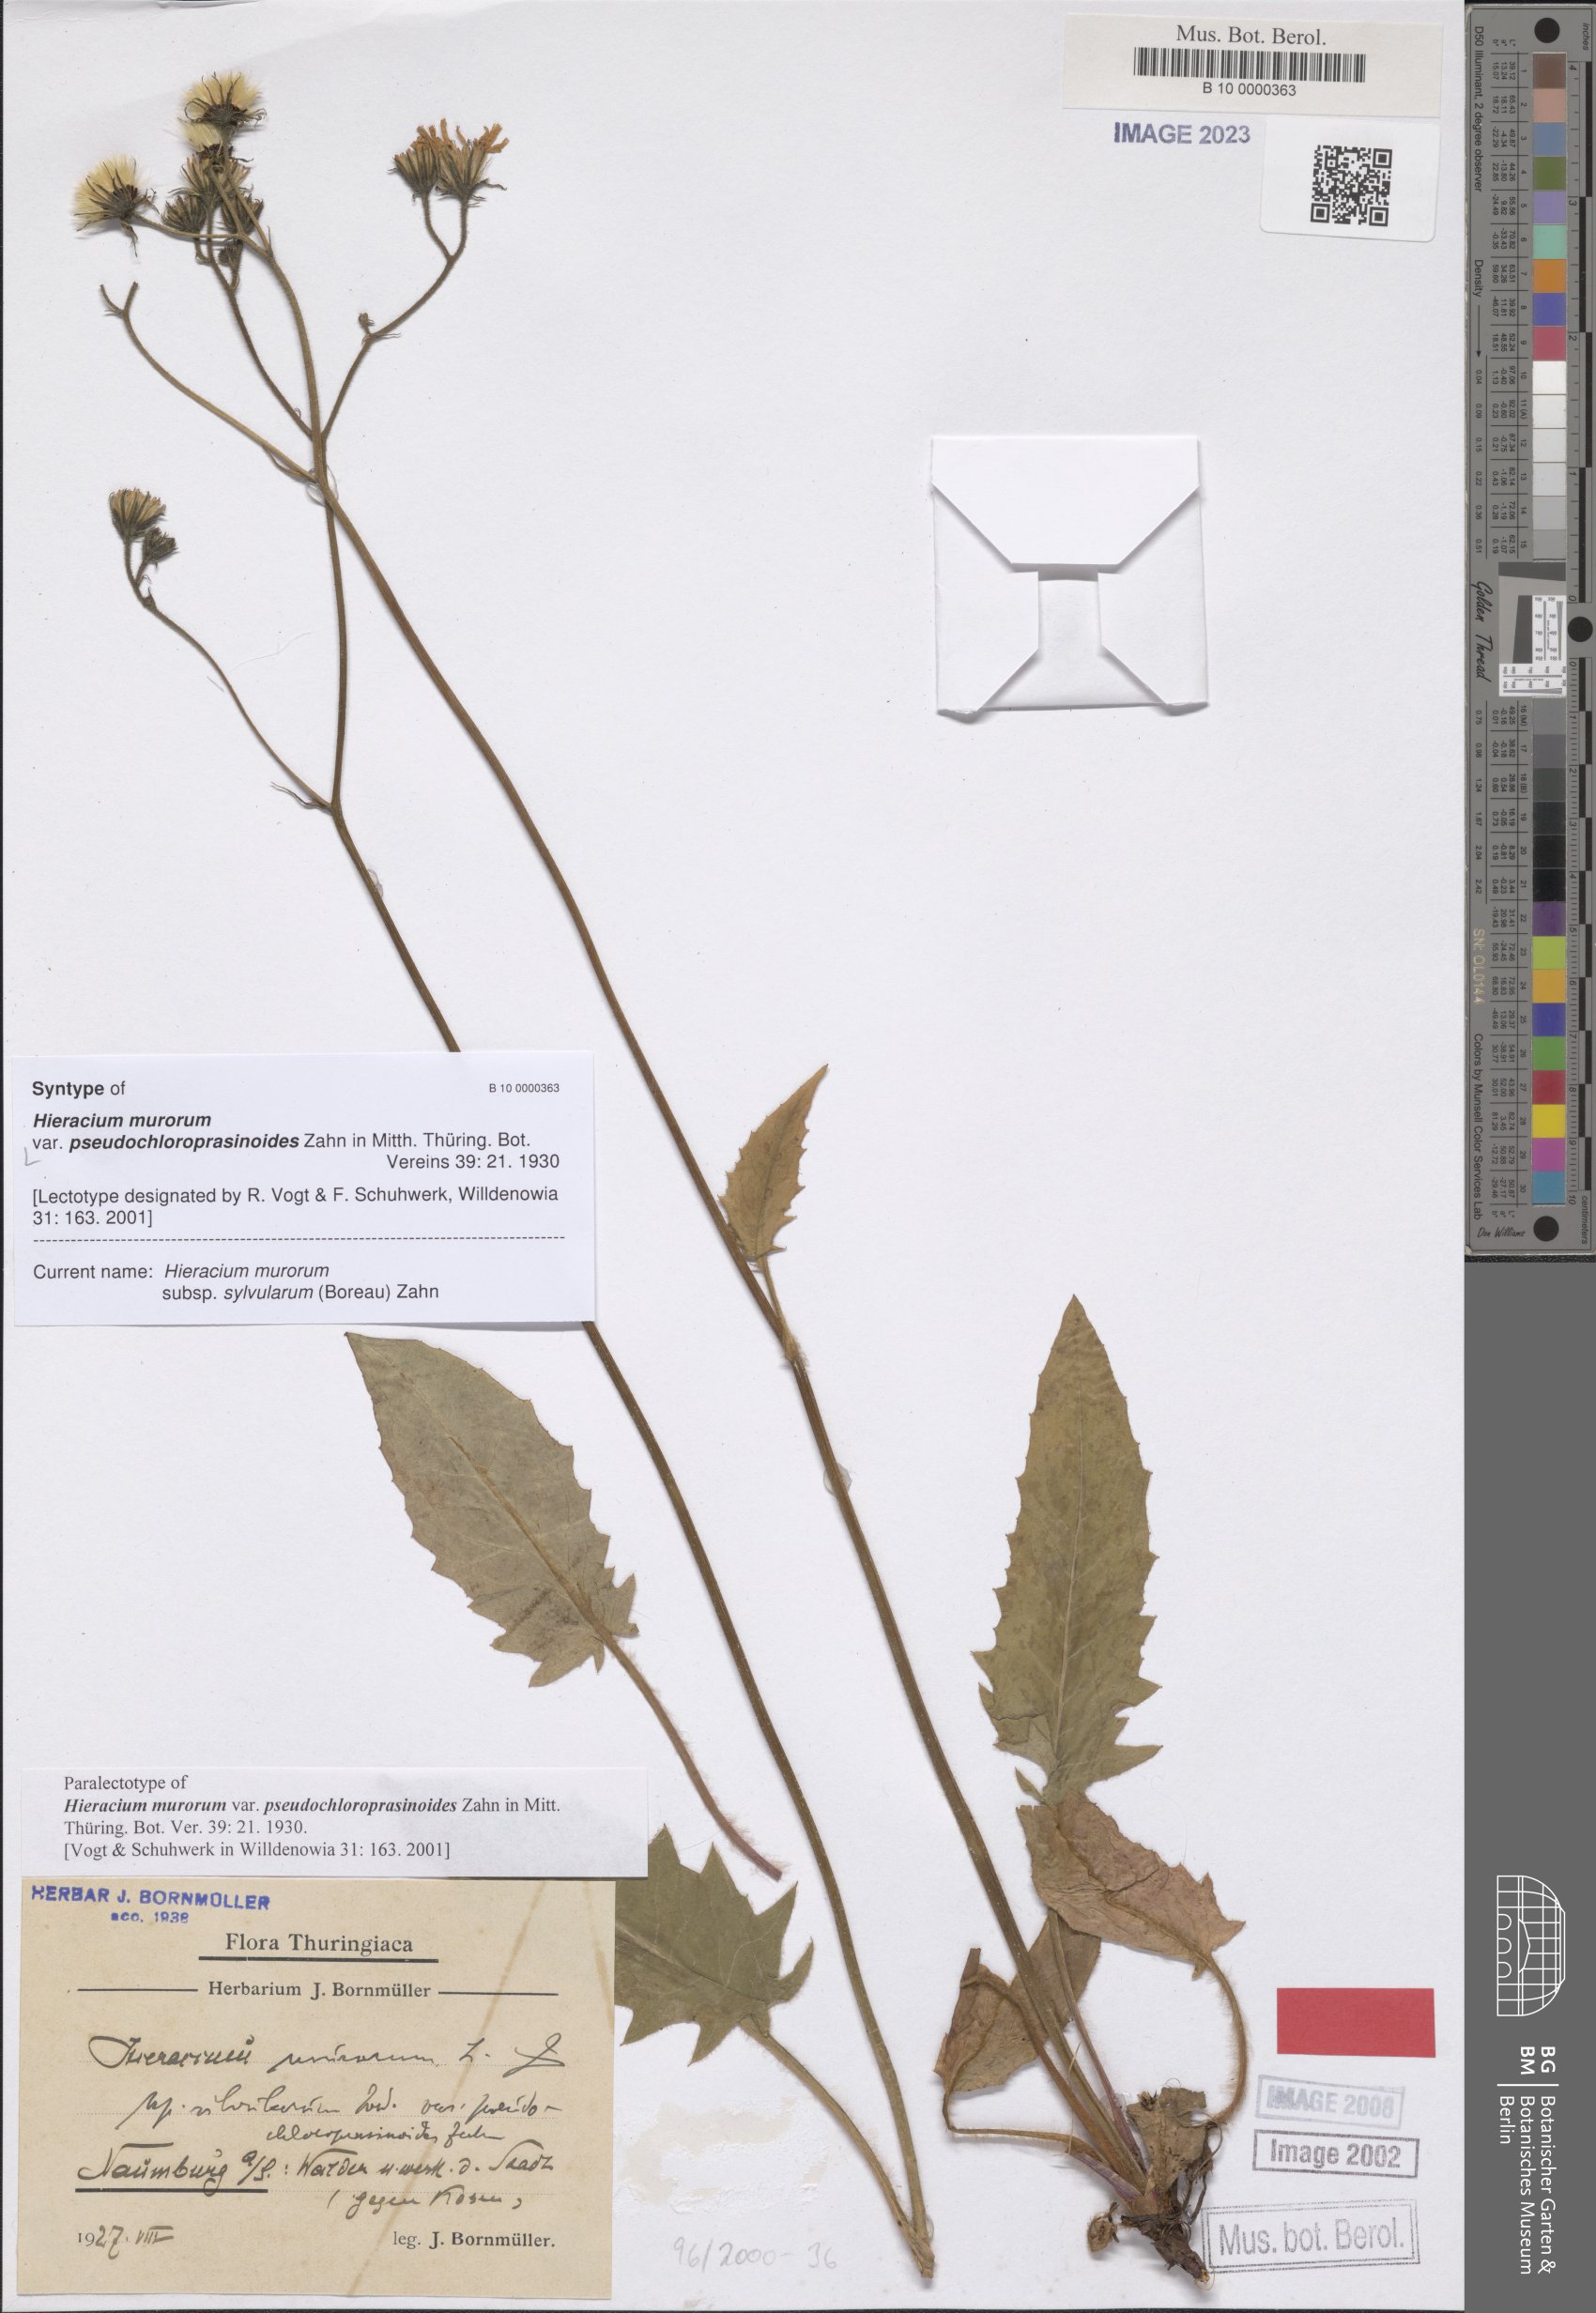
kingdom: Plantae
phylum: Tracheophyta
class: Magnoliopsida
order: Asterales
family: Asteraceae
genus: Hieracium
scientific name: Hieracium murorum
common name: Wall hawkweed
